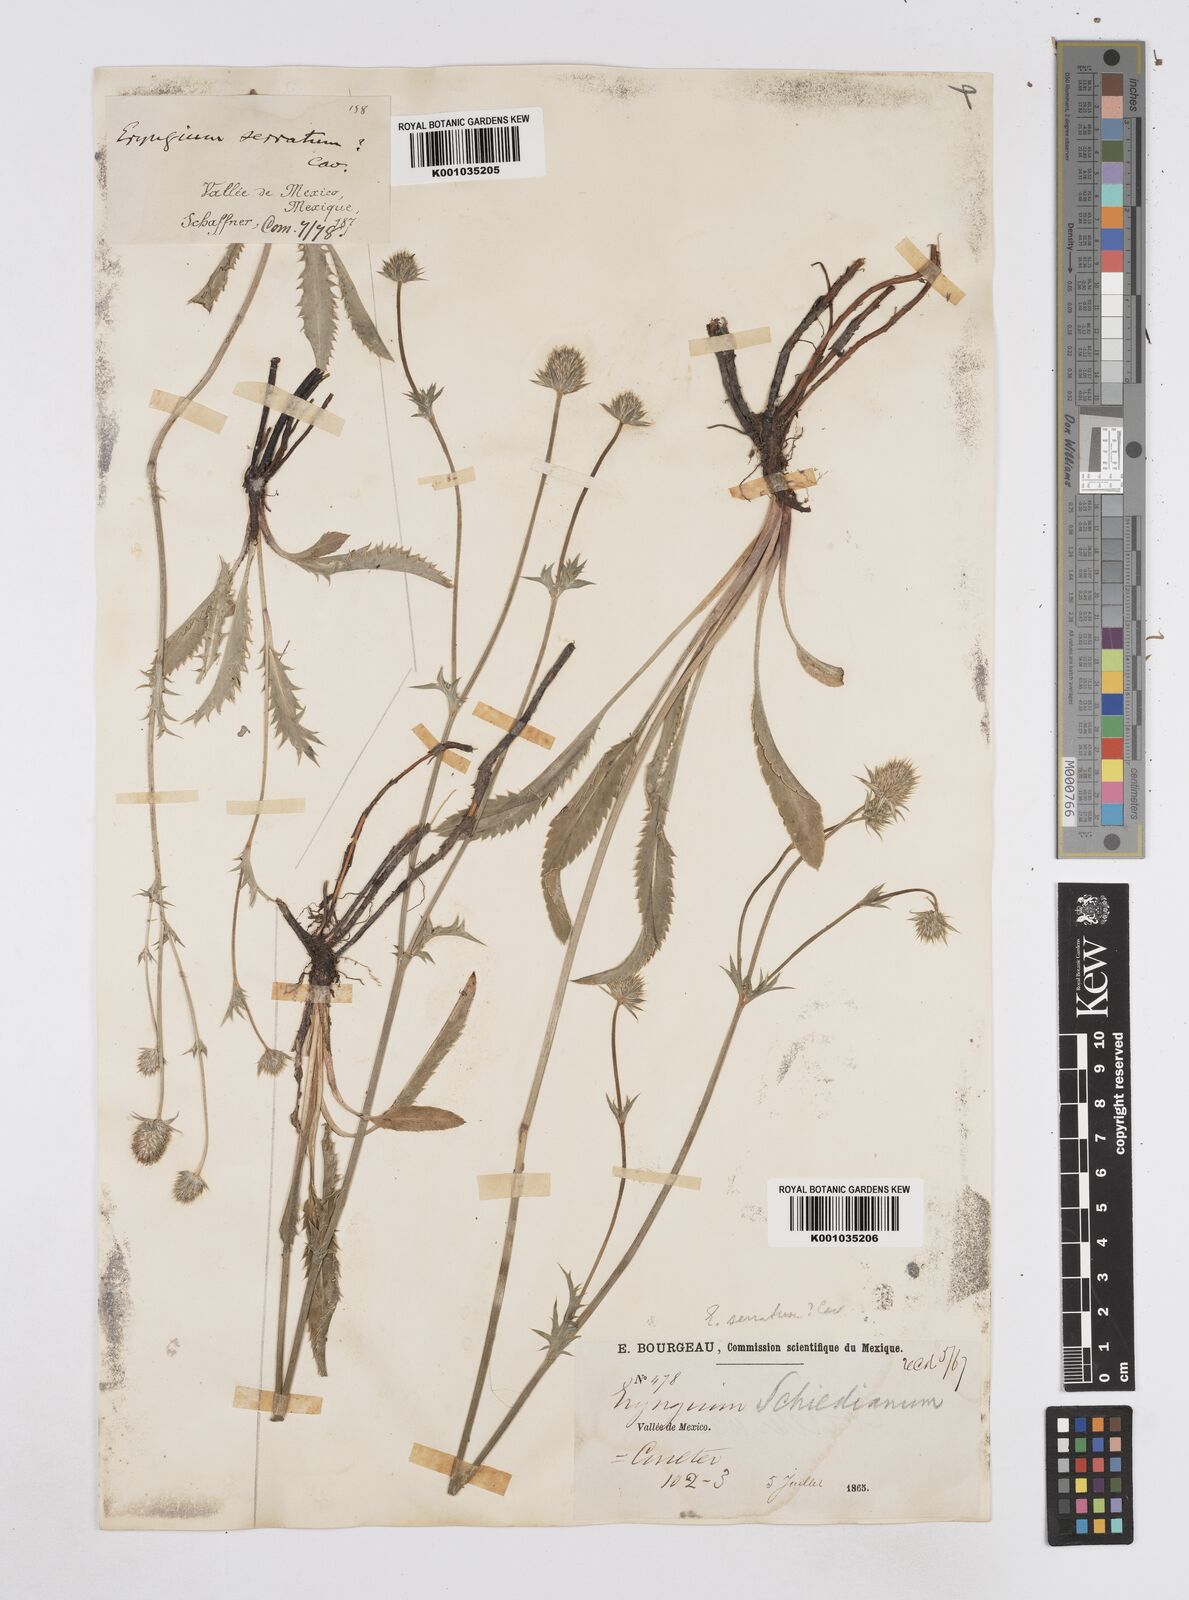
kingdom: Plantae
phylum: Tracheophyta
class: Magnoliopsida
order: Apiales
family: Apiaceae
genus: Eryngium
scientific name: Eryngium serratum
